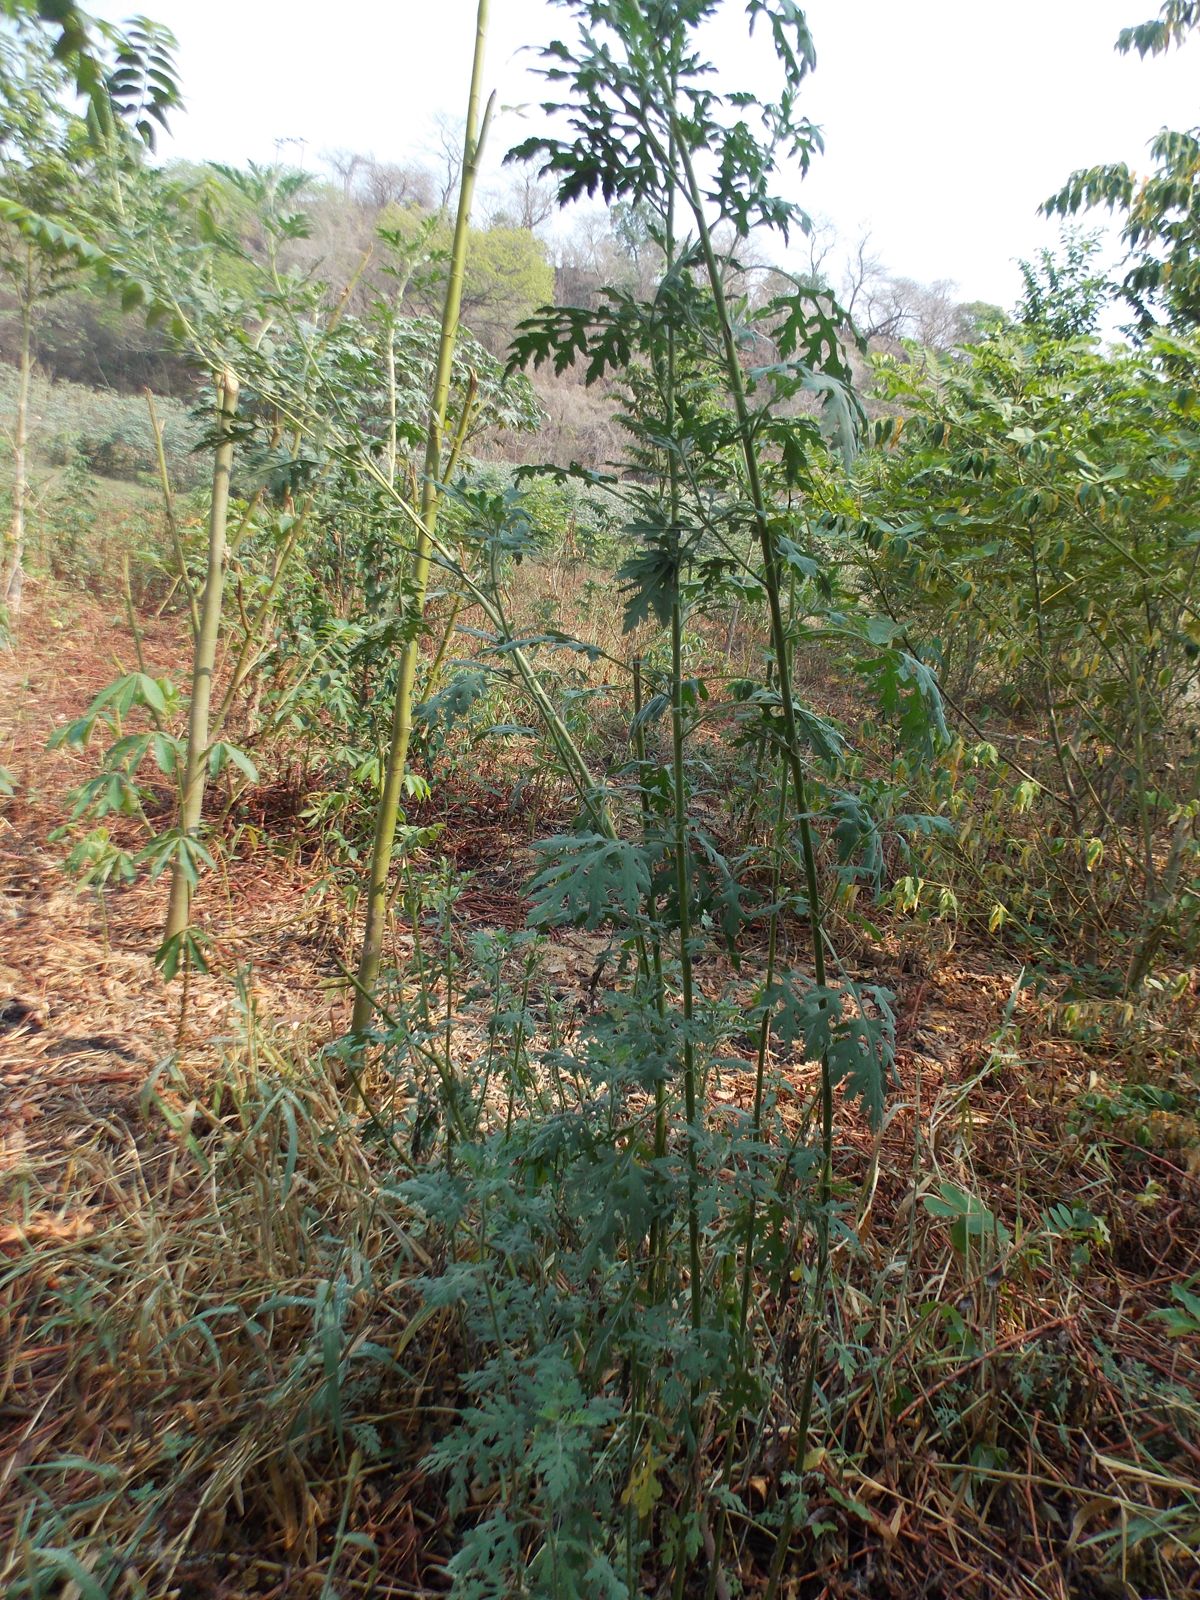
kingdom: Plantae
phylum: Tracheophyta
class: Magnoliopsida
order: Asterales
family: Asteraceae
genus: Ambrosia
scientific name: Ambrosia cumanensis
